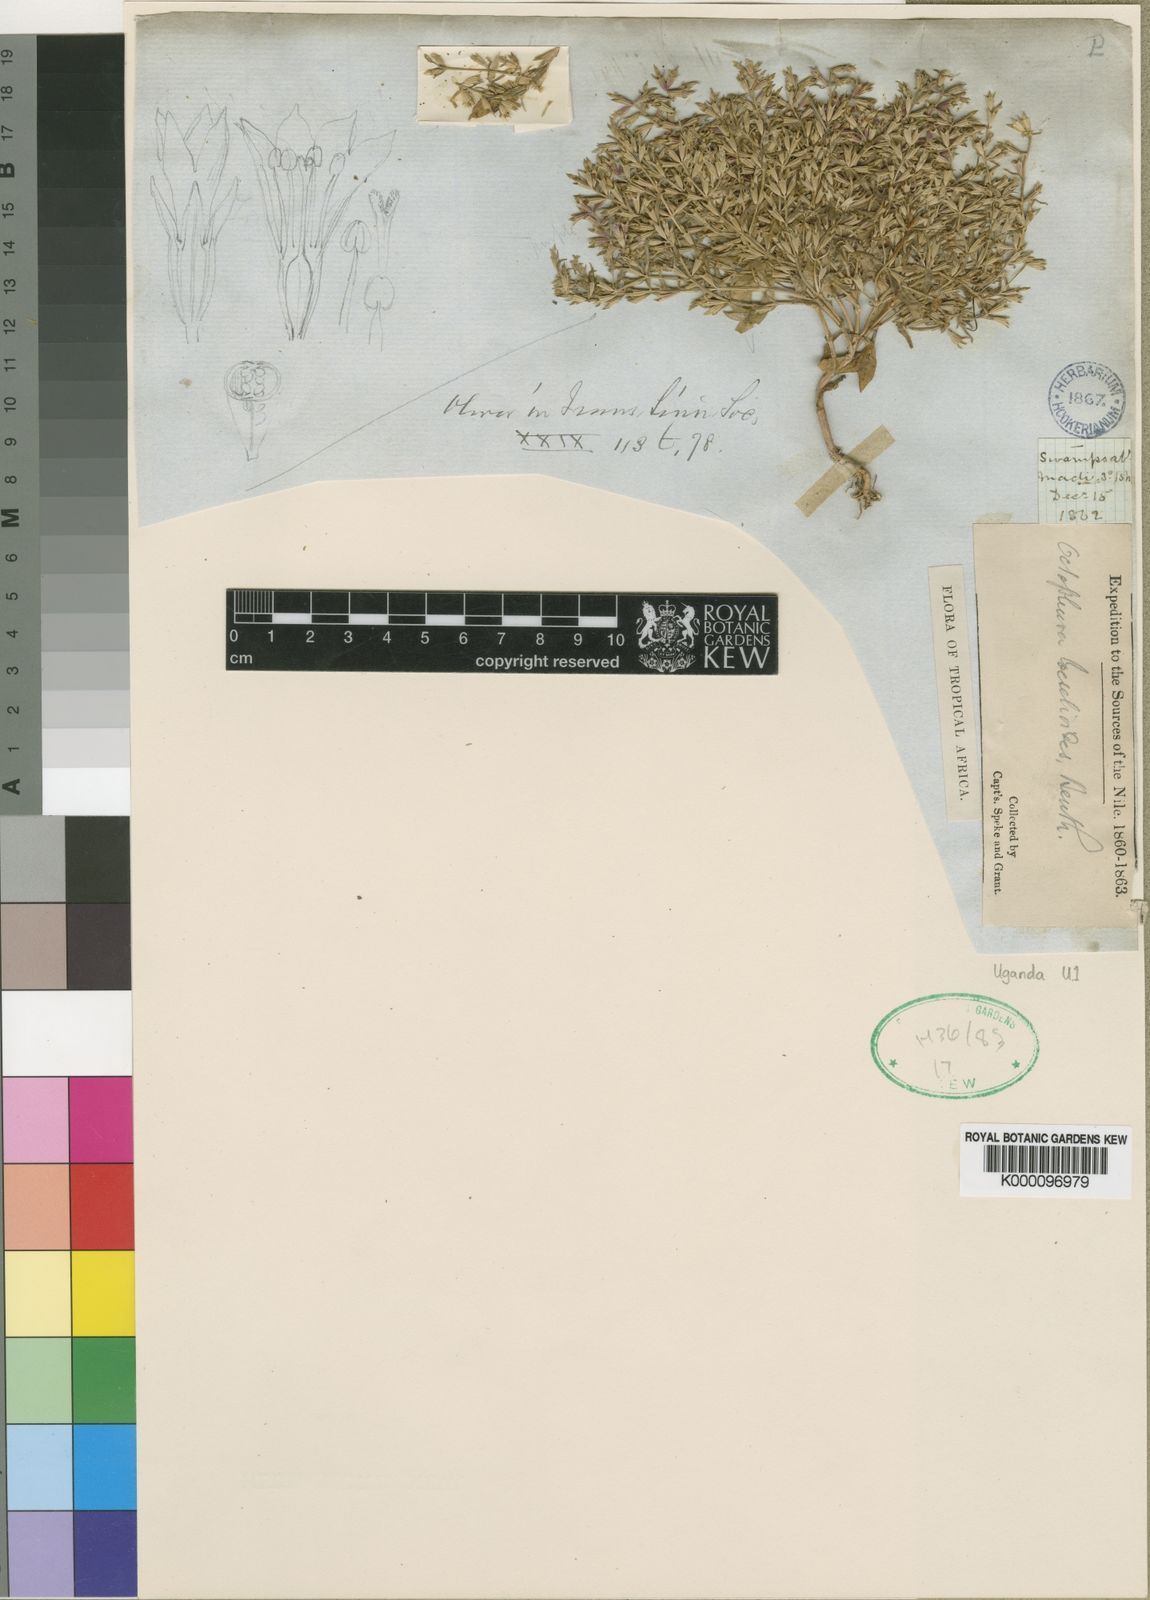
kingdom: Plantae
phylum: Tracheophyta
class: Magnoliopsida
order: Gentianales
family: Gentianaceae
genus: Neurotheca
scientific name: Neurotheca
